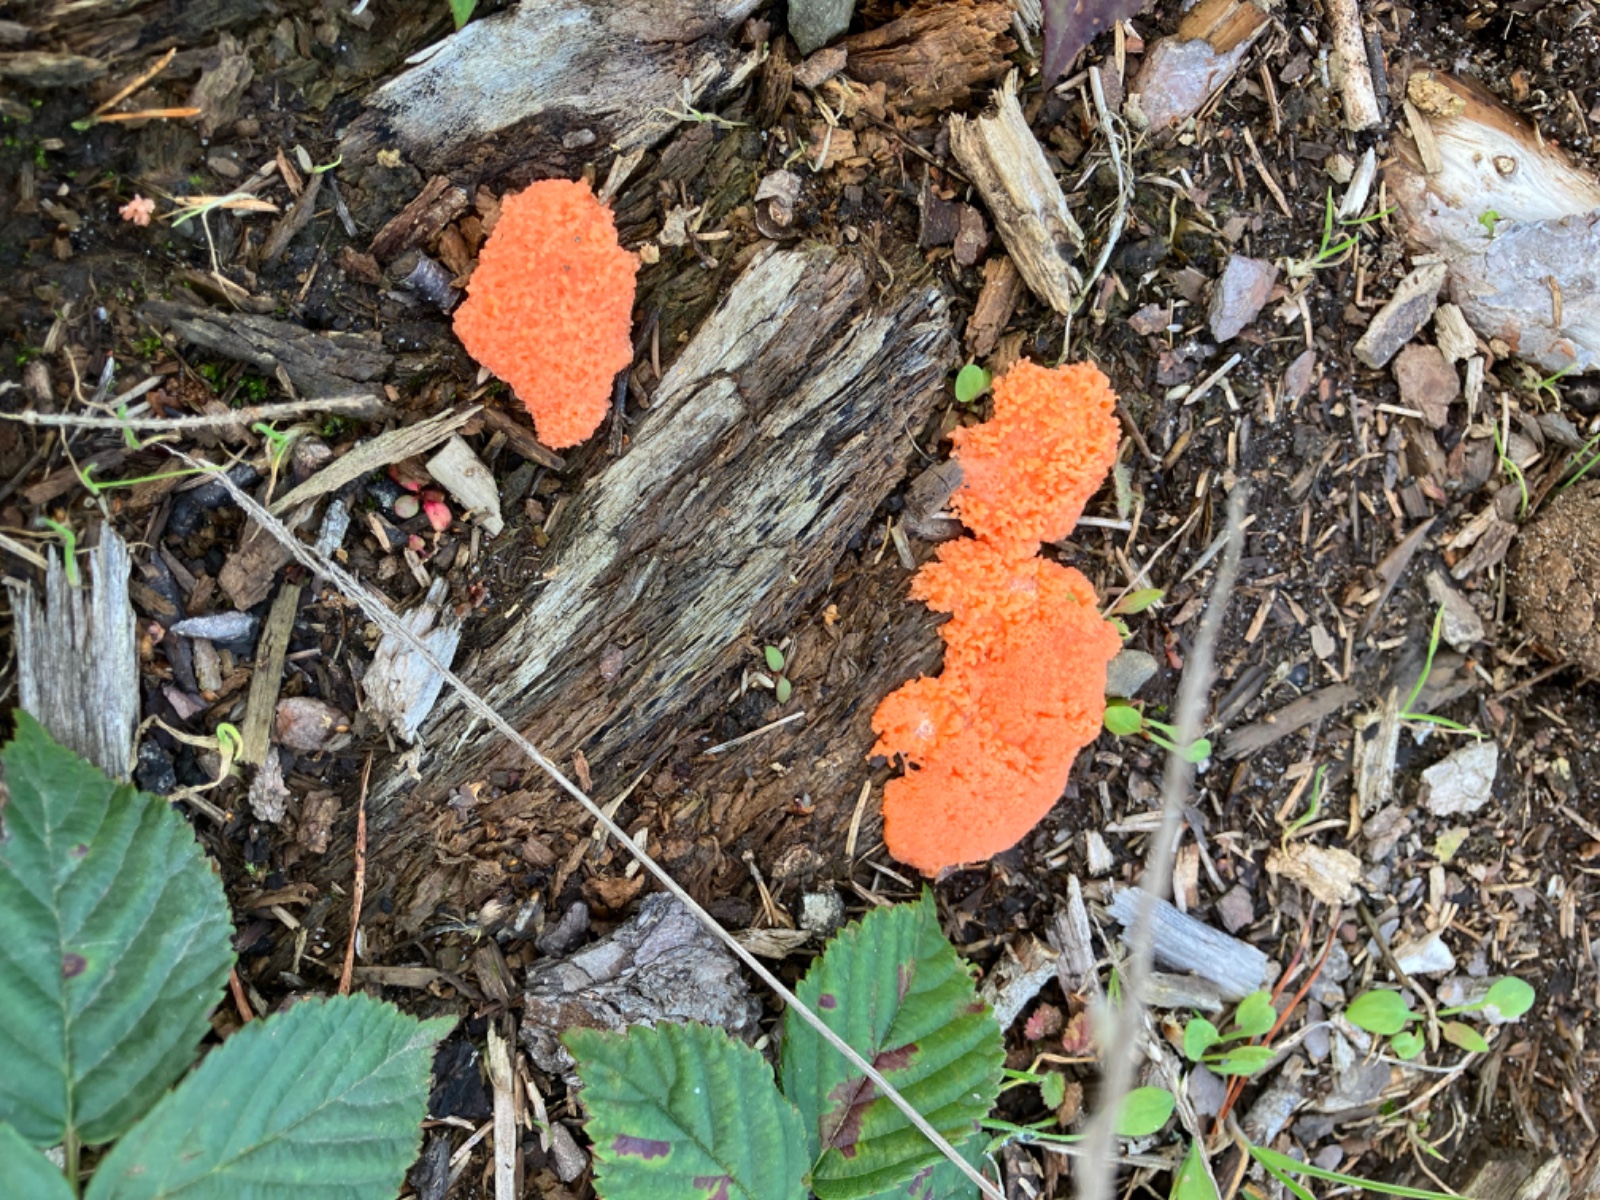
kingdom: Protozoa
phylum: Mycetozoa
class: Myxomycetes
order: Cribrariales
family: Tubiferaceae
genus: Tubifera
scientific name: Tubifera ferruginosa
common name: kanel-støvrør
